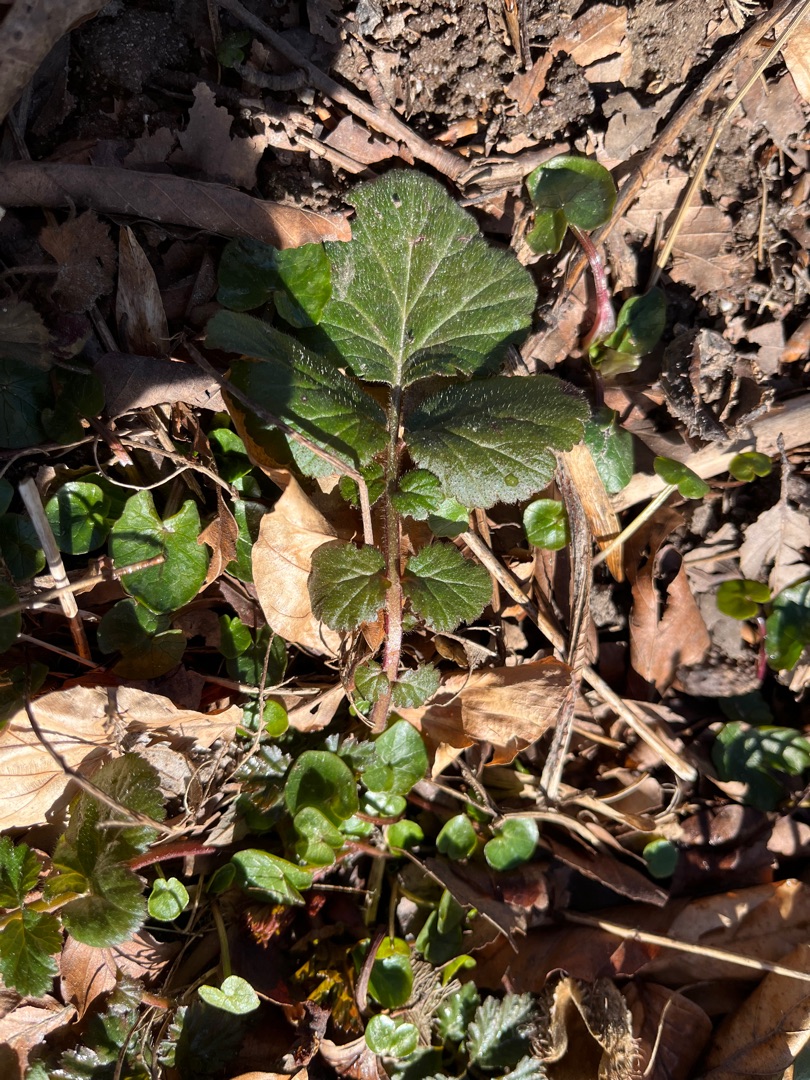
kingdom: Plantae
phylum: Tracheophyta
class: Magnoliopsida
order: Rosales
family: Rosaceae
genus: Geum
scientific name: Geum urbanum
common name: Feber-nellikerod
